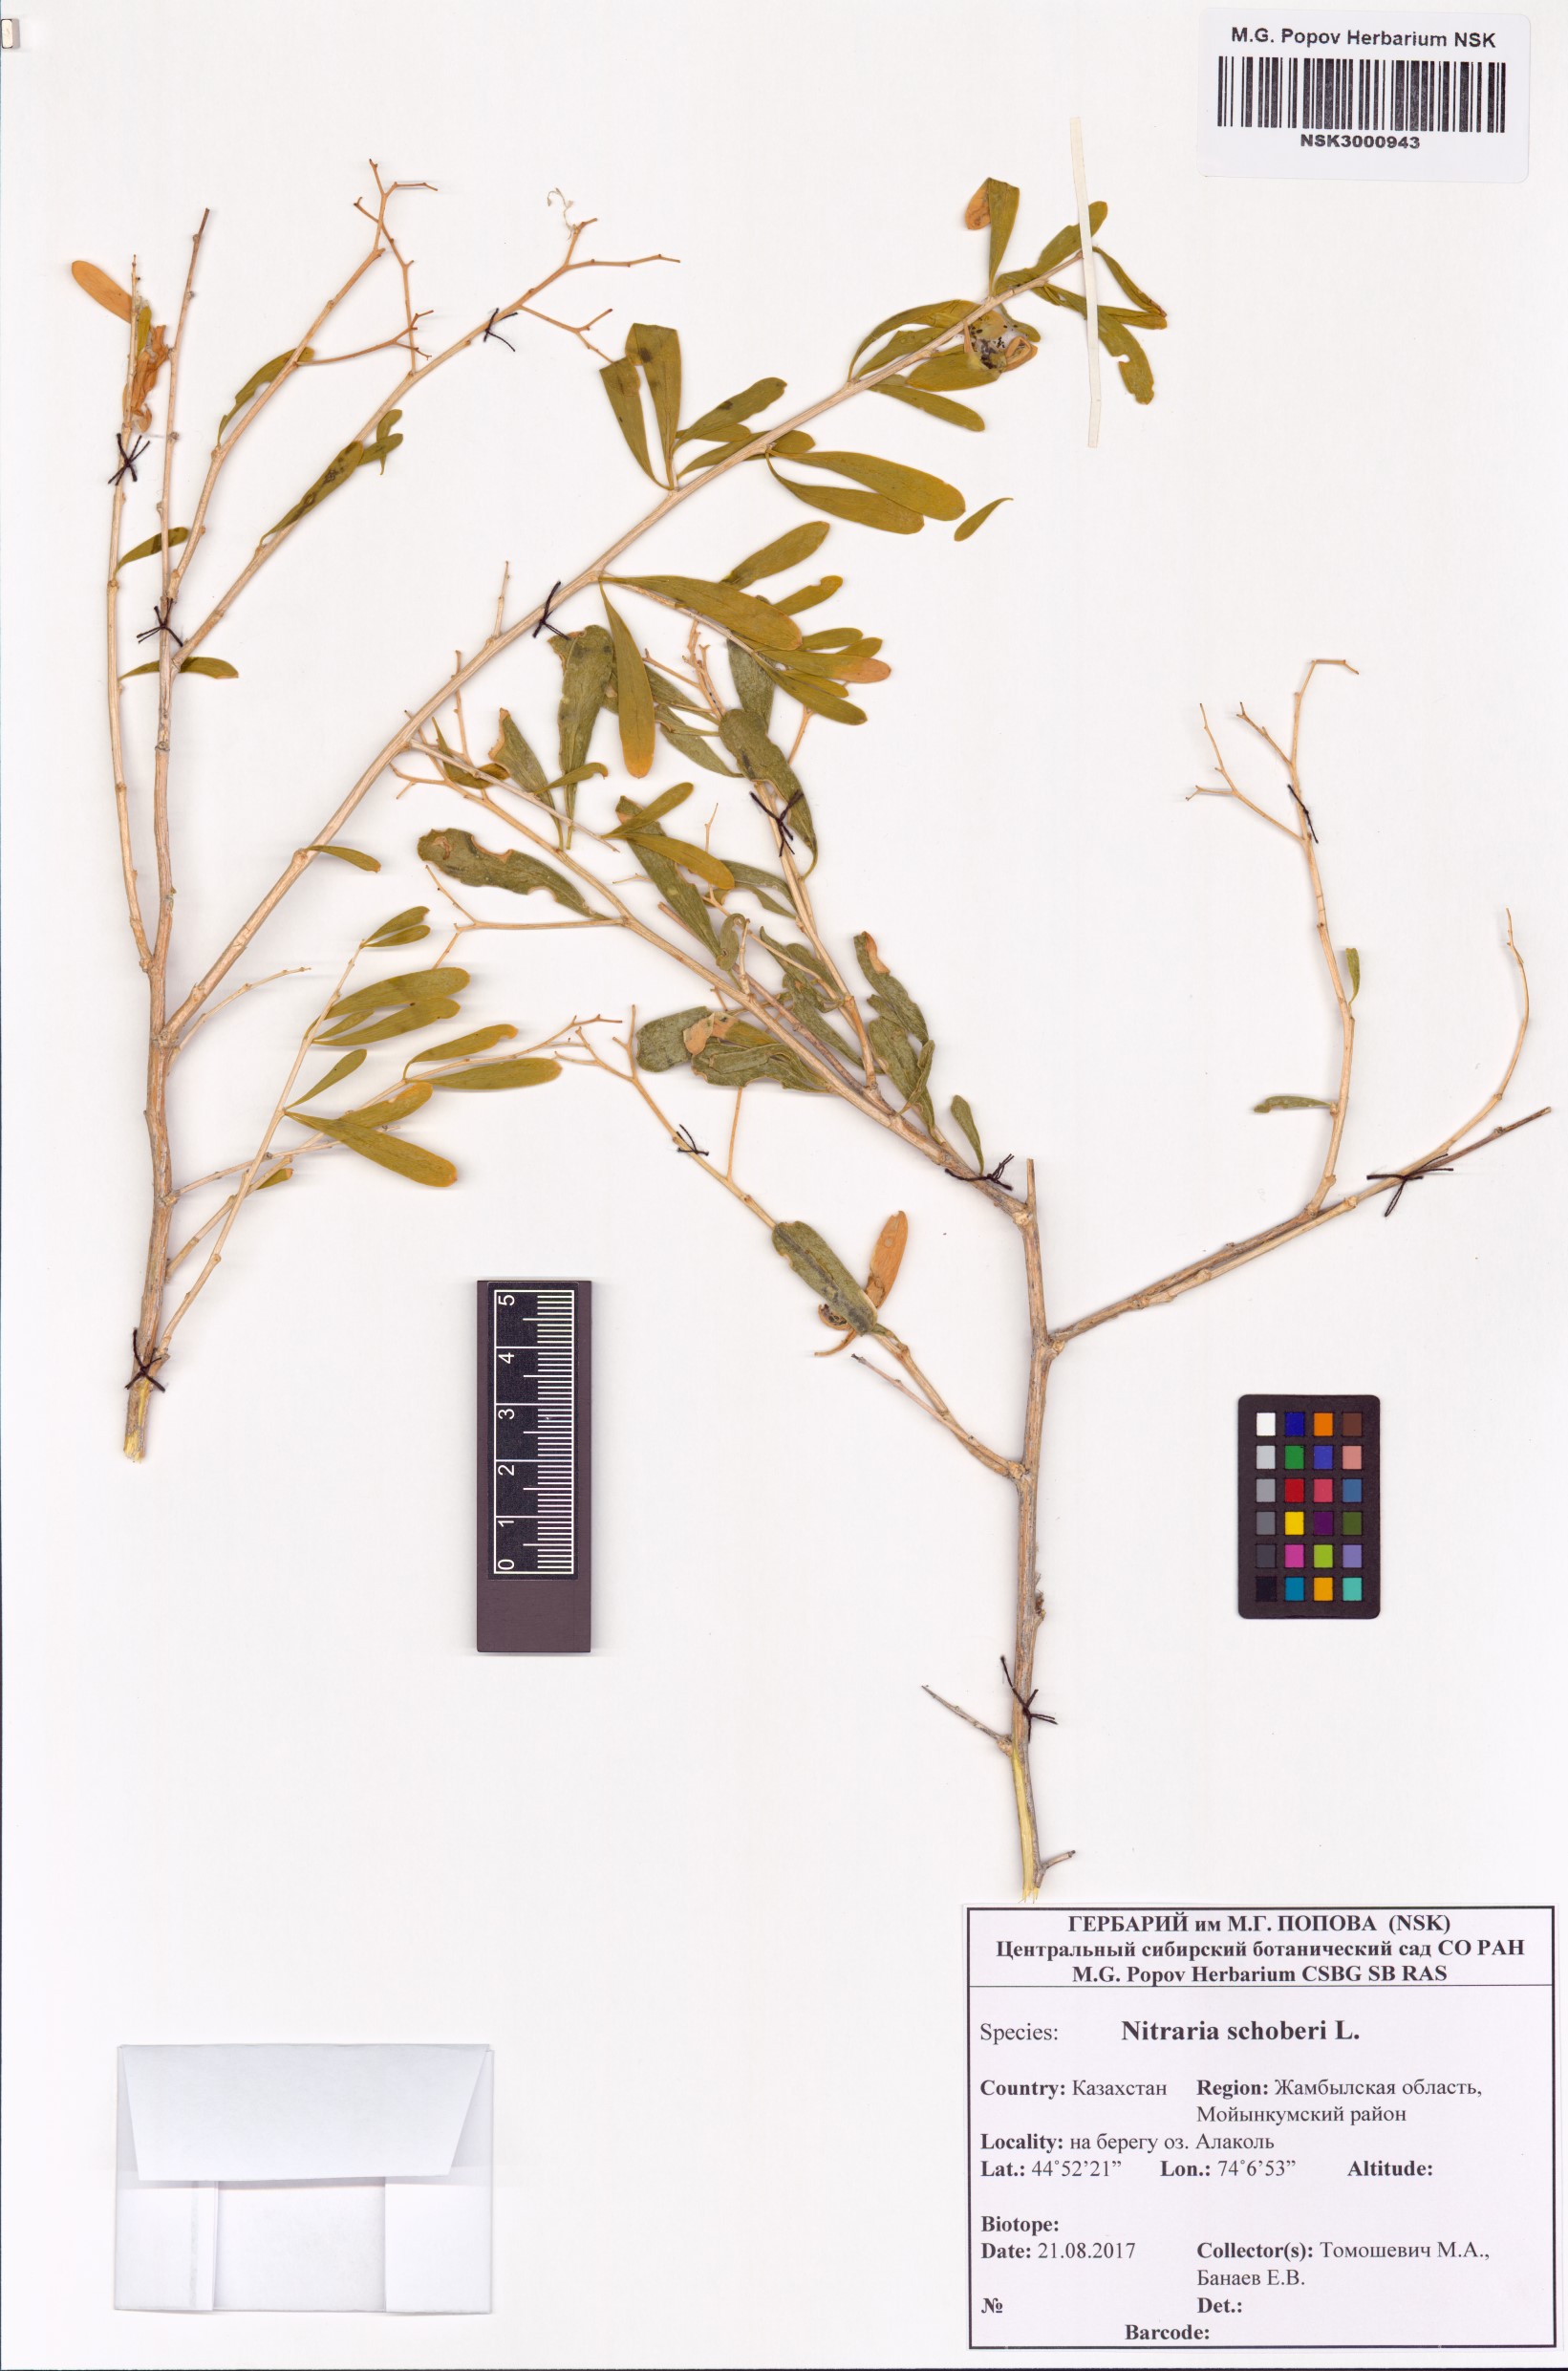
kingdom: Plantae
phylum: Tracheophyta
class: Magnoliopsida
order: Sapindales
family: Nitrariaceae
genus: Nitraria
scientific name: Nitraria schoberi
